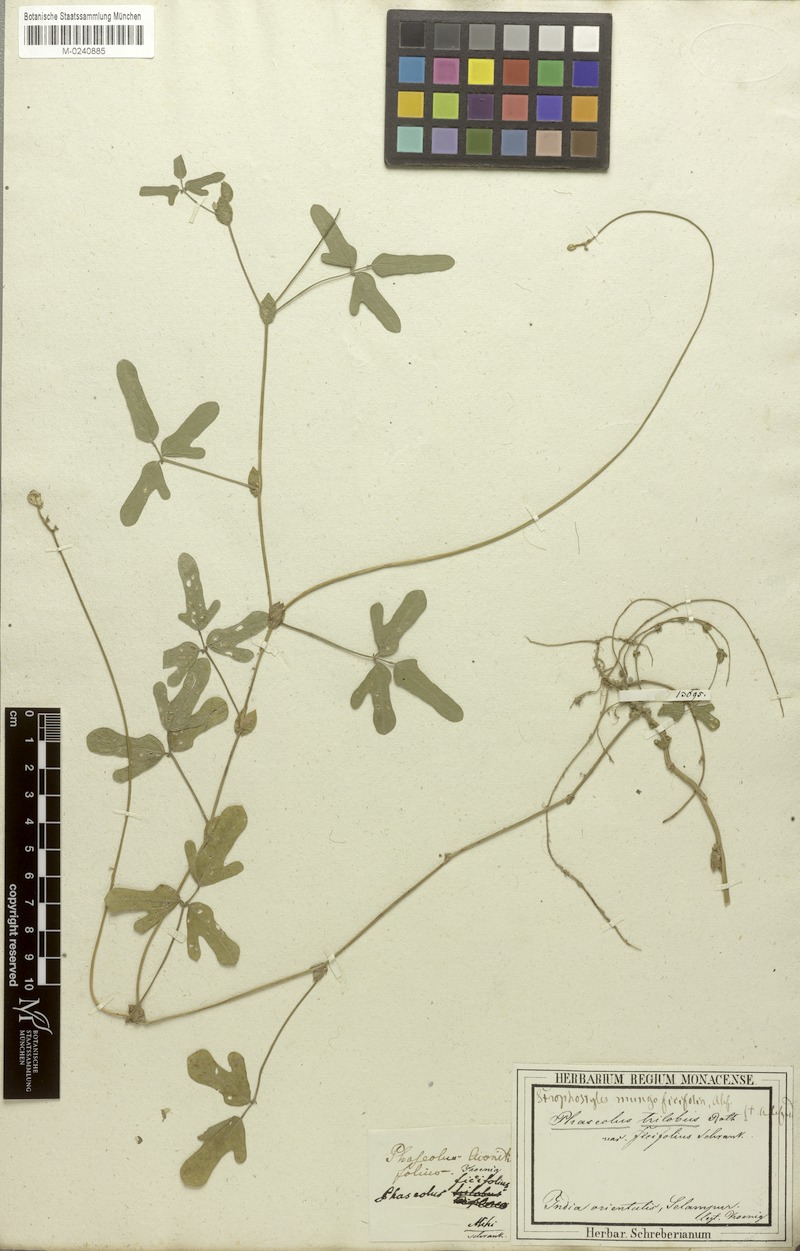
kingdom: Plantae
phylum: Tracheophyta
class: Magnoliopsida
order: Fabales
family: Fabaceae
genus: Vigna
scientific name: Vigna trilobata
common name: Jungli-bean
